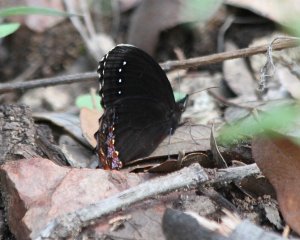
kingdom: Animalia
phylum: Arthropoda
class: Insecta
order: Lepidoptera
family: Nymphalidae
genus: Gyrocheilus
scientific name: Gyrocheilus patrobas
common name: Red-bordered Satyr
